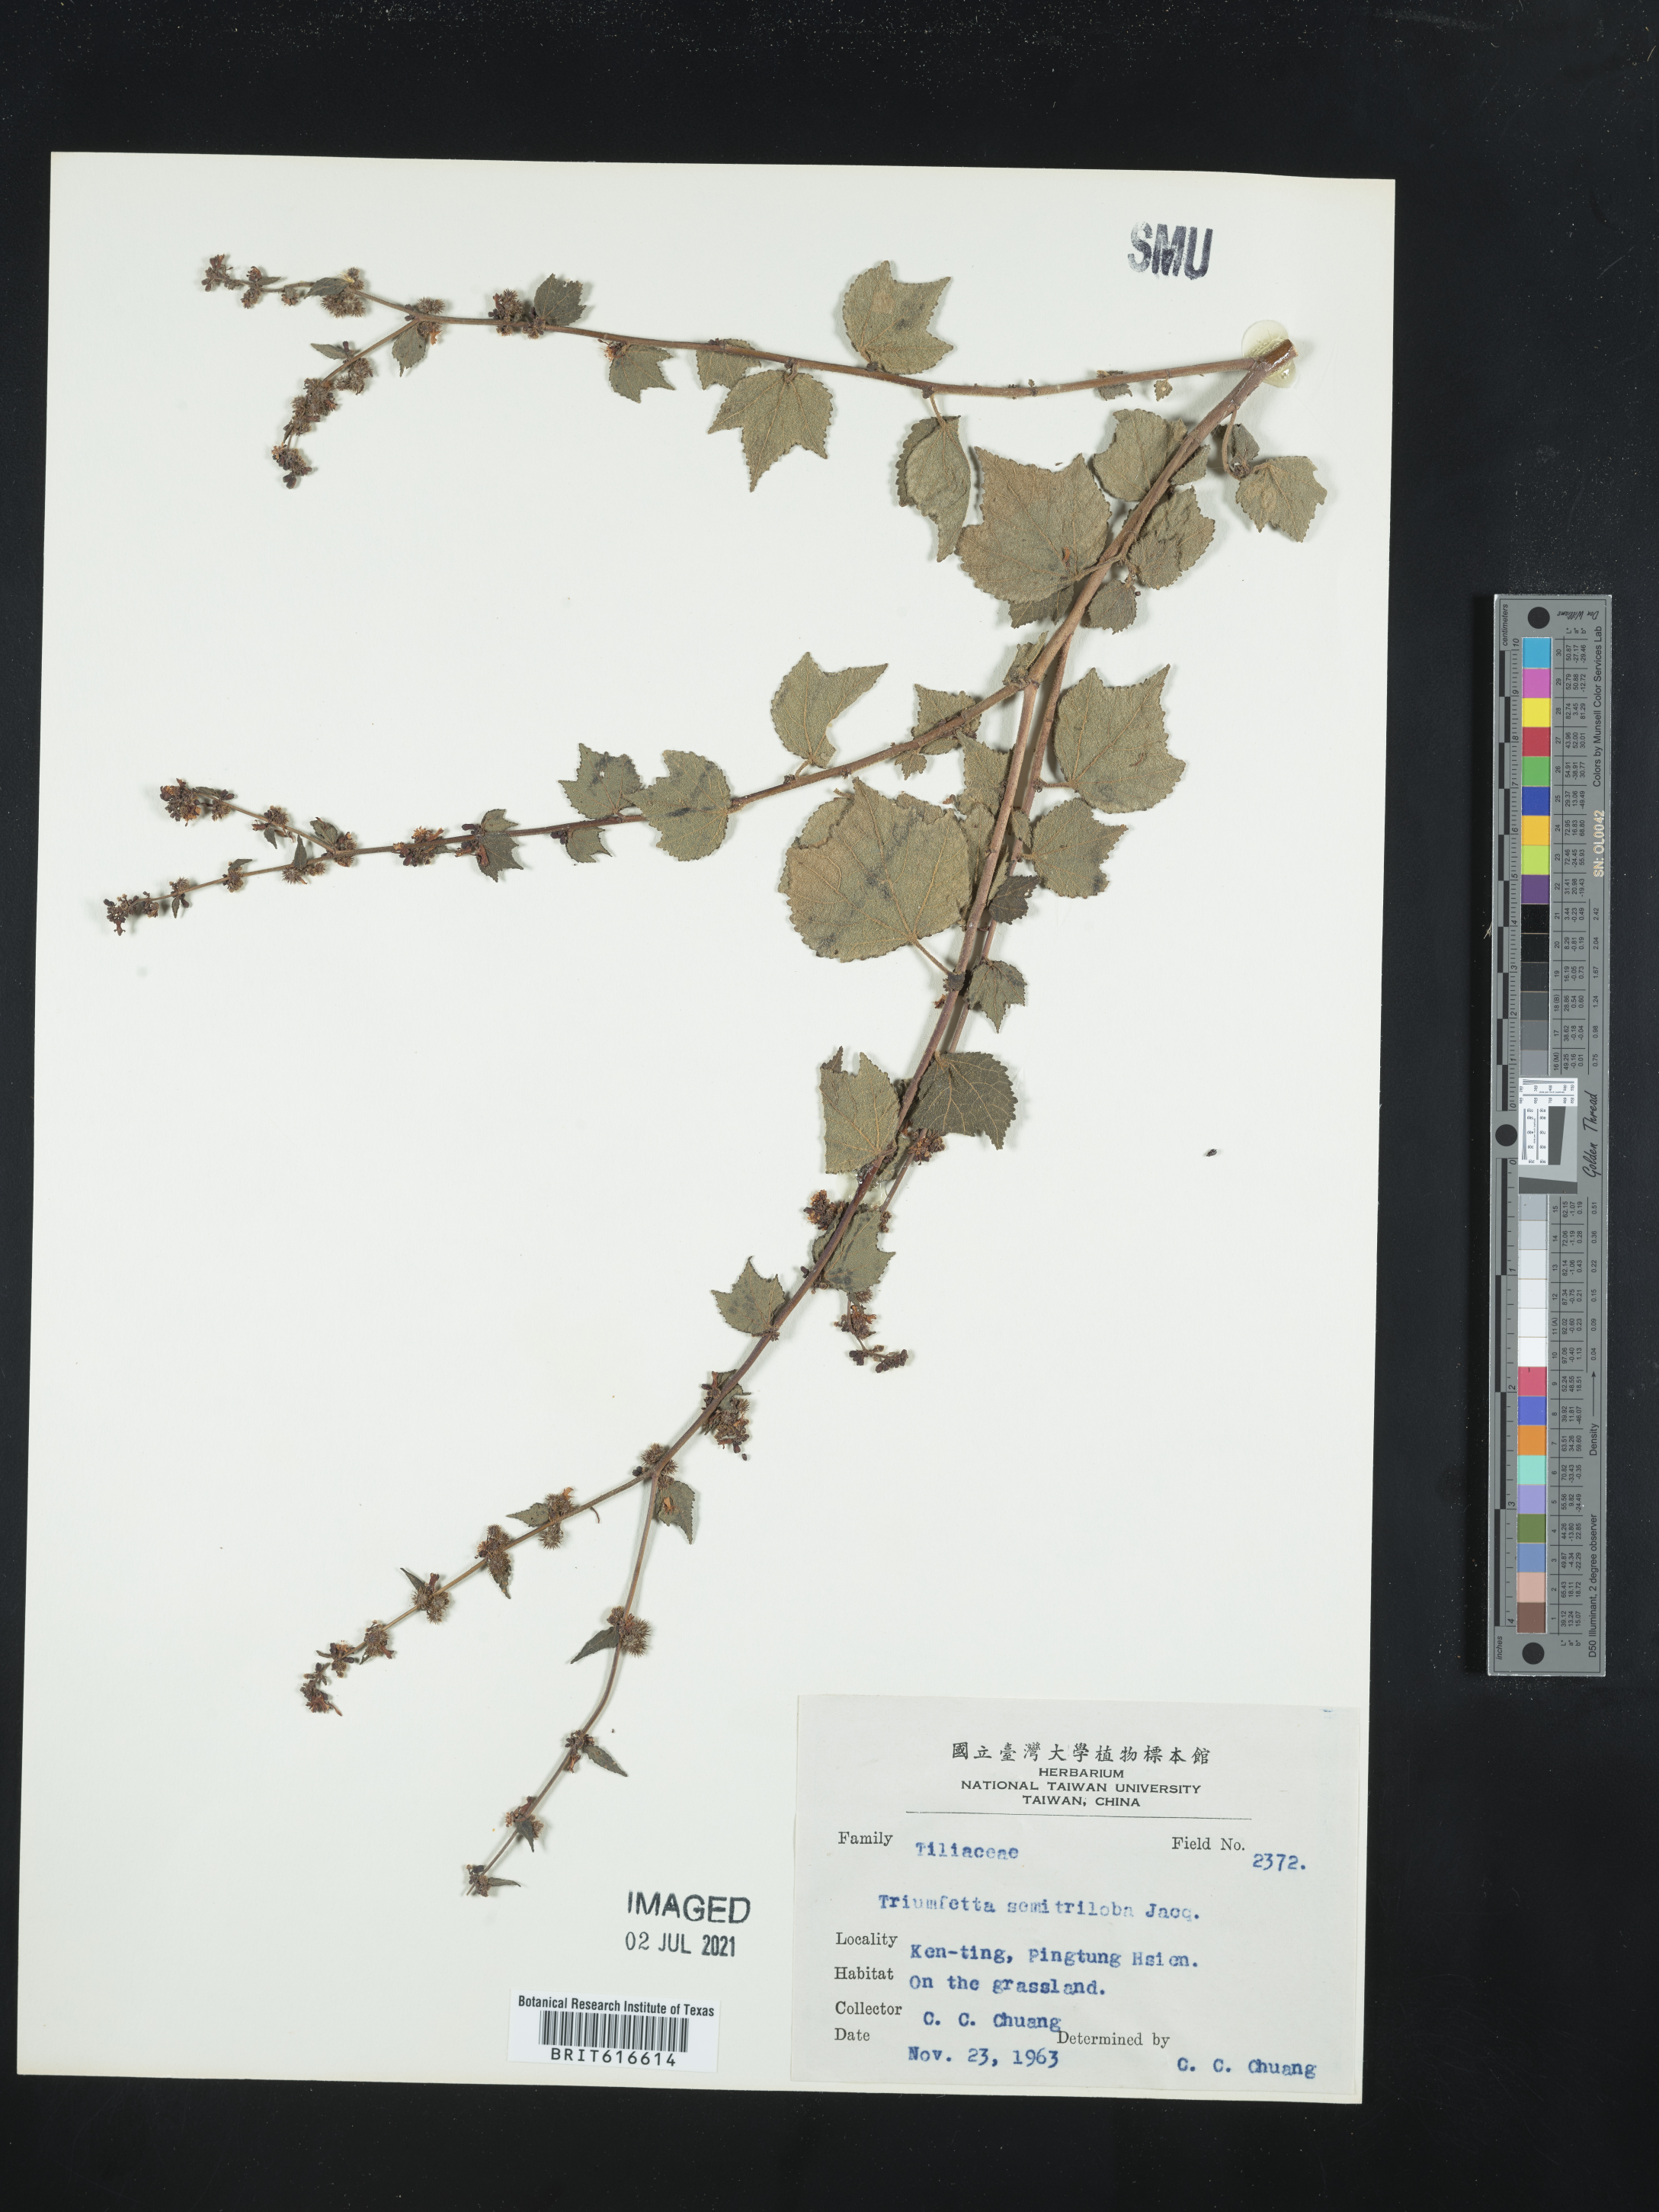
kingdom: Plantae
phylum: Tracheophyta
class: Magnoliopsida
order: Malvales
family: Malvaceae
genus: Triumfetta
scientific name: Triumfetta semitriloba
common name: Sacramento burbark
